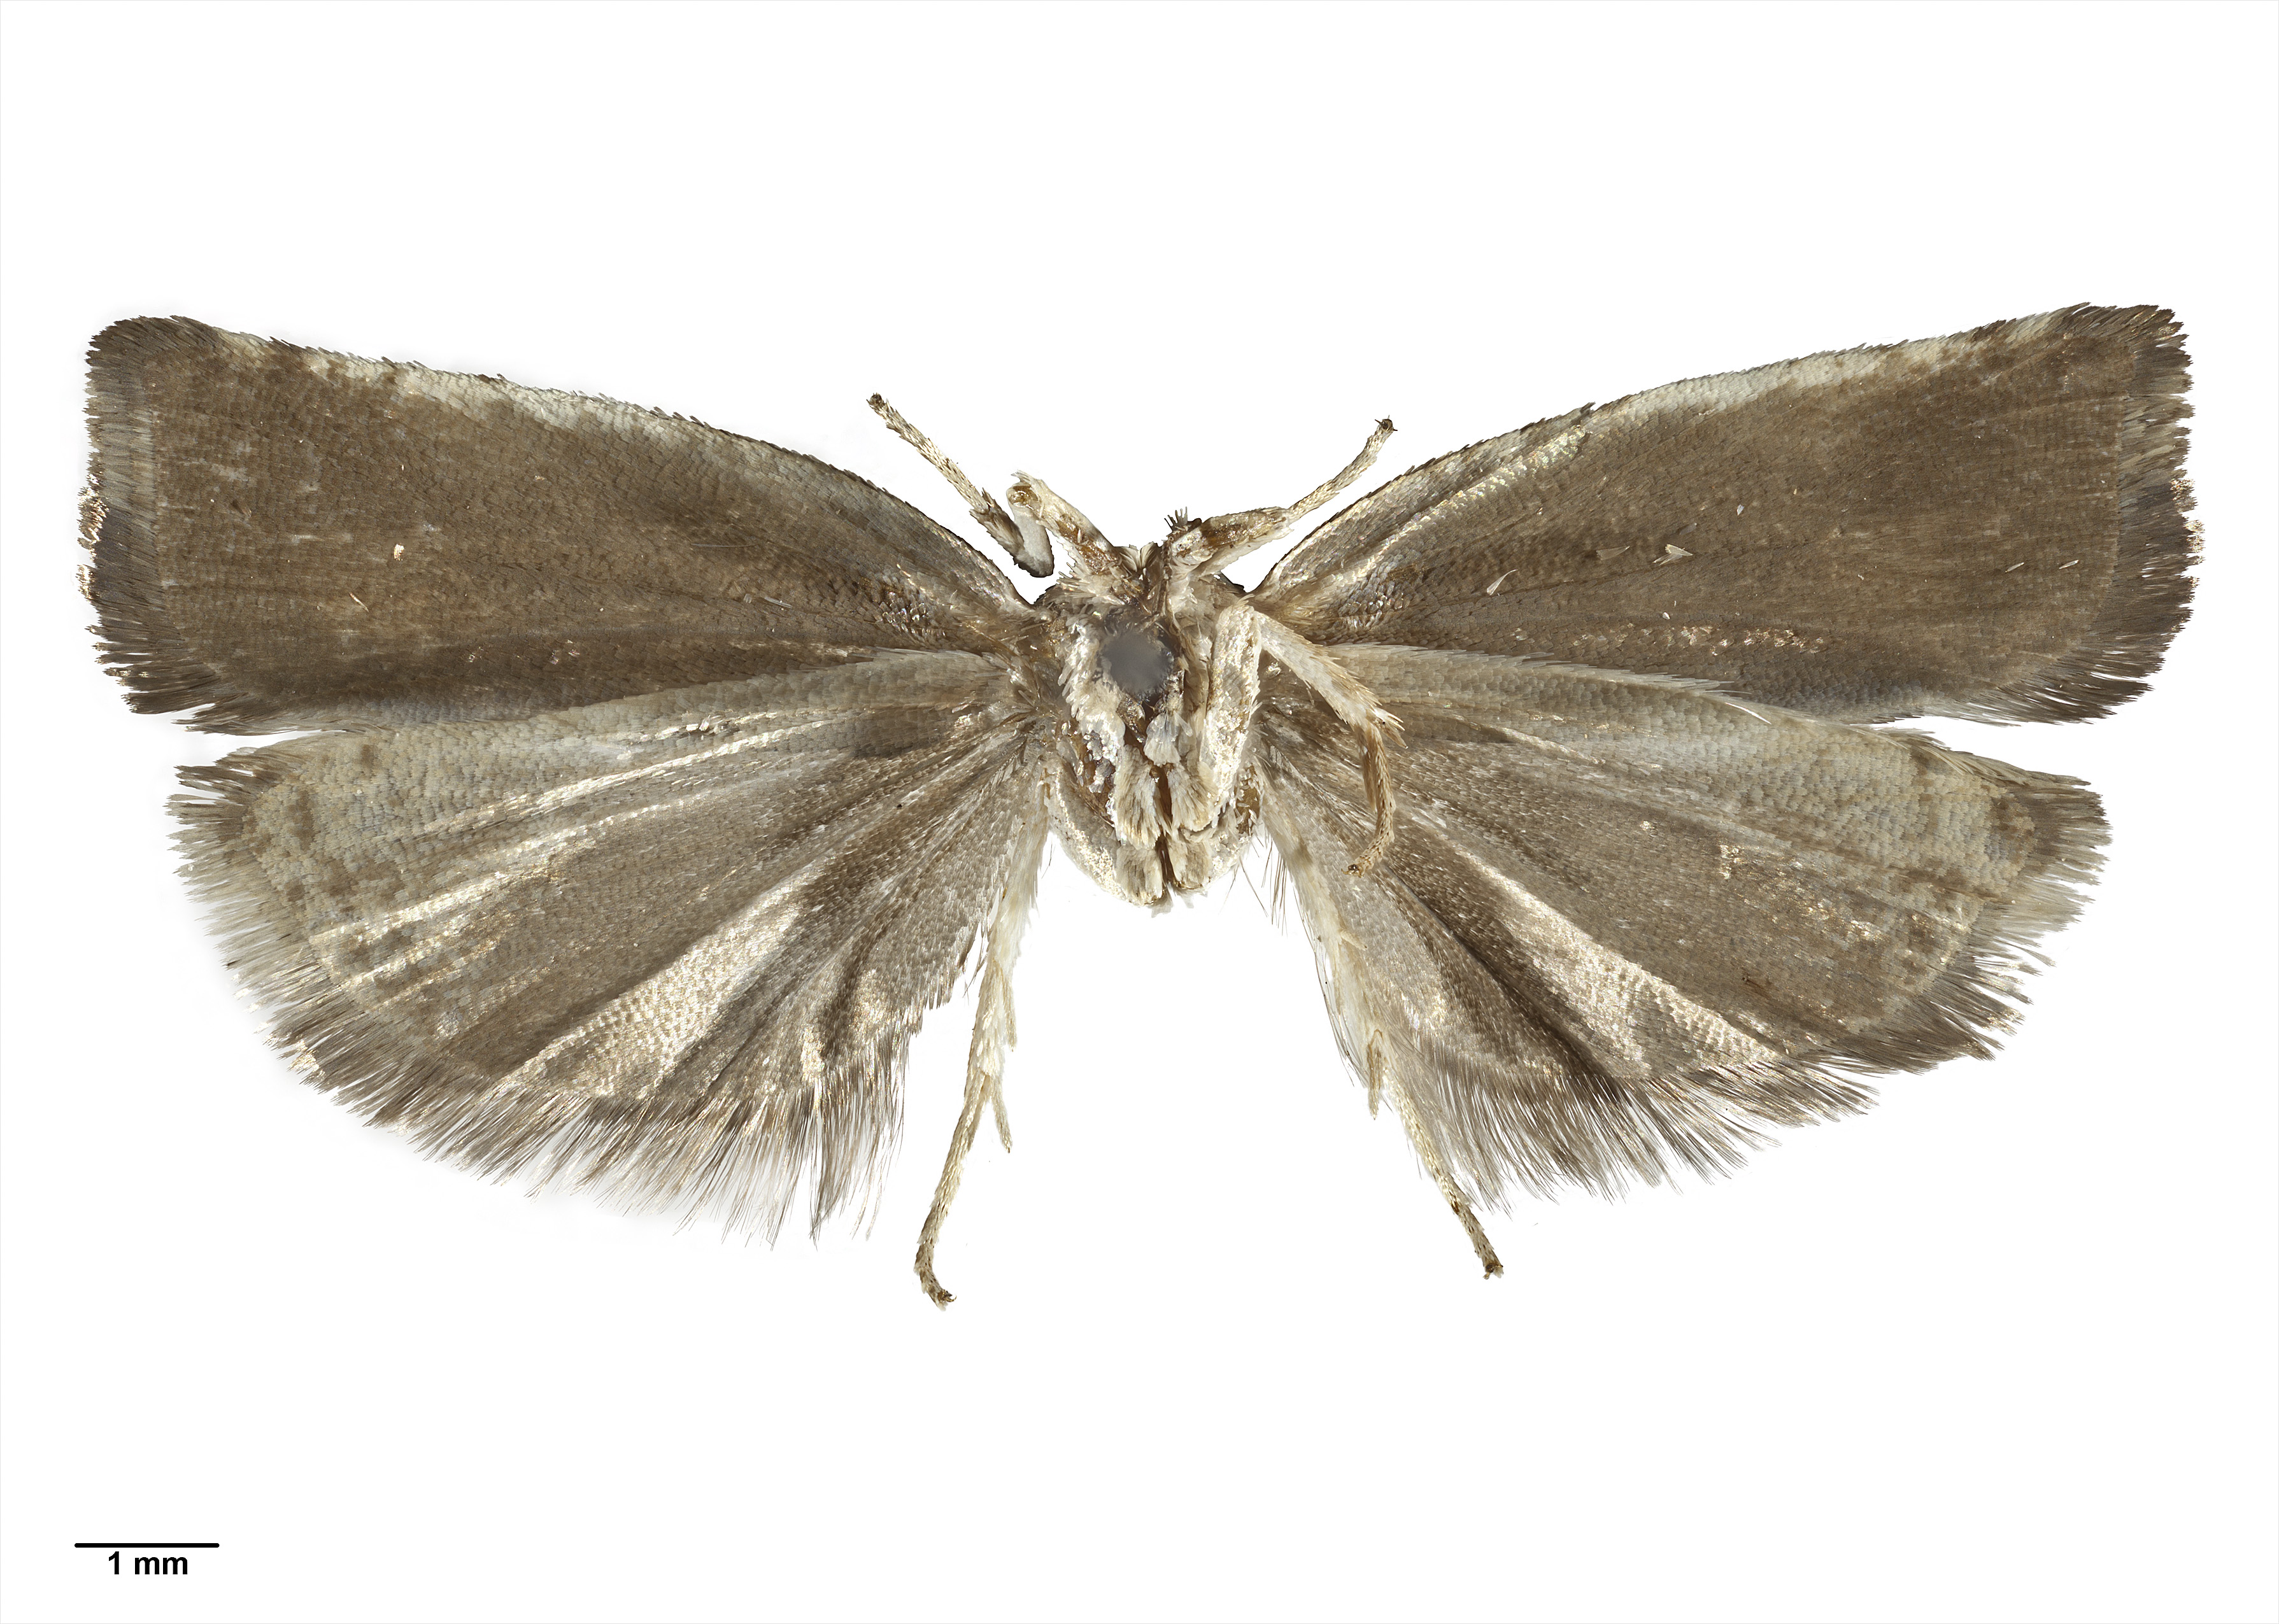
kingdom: Animalia
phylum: Arthropoda
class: Insecta
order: Lepidoptera
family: Tortricidae
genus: Epichorista
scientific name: Epichorista emphanes
